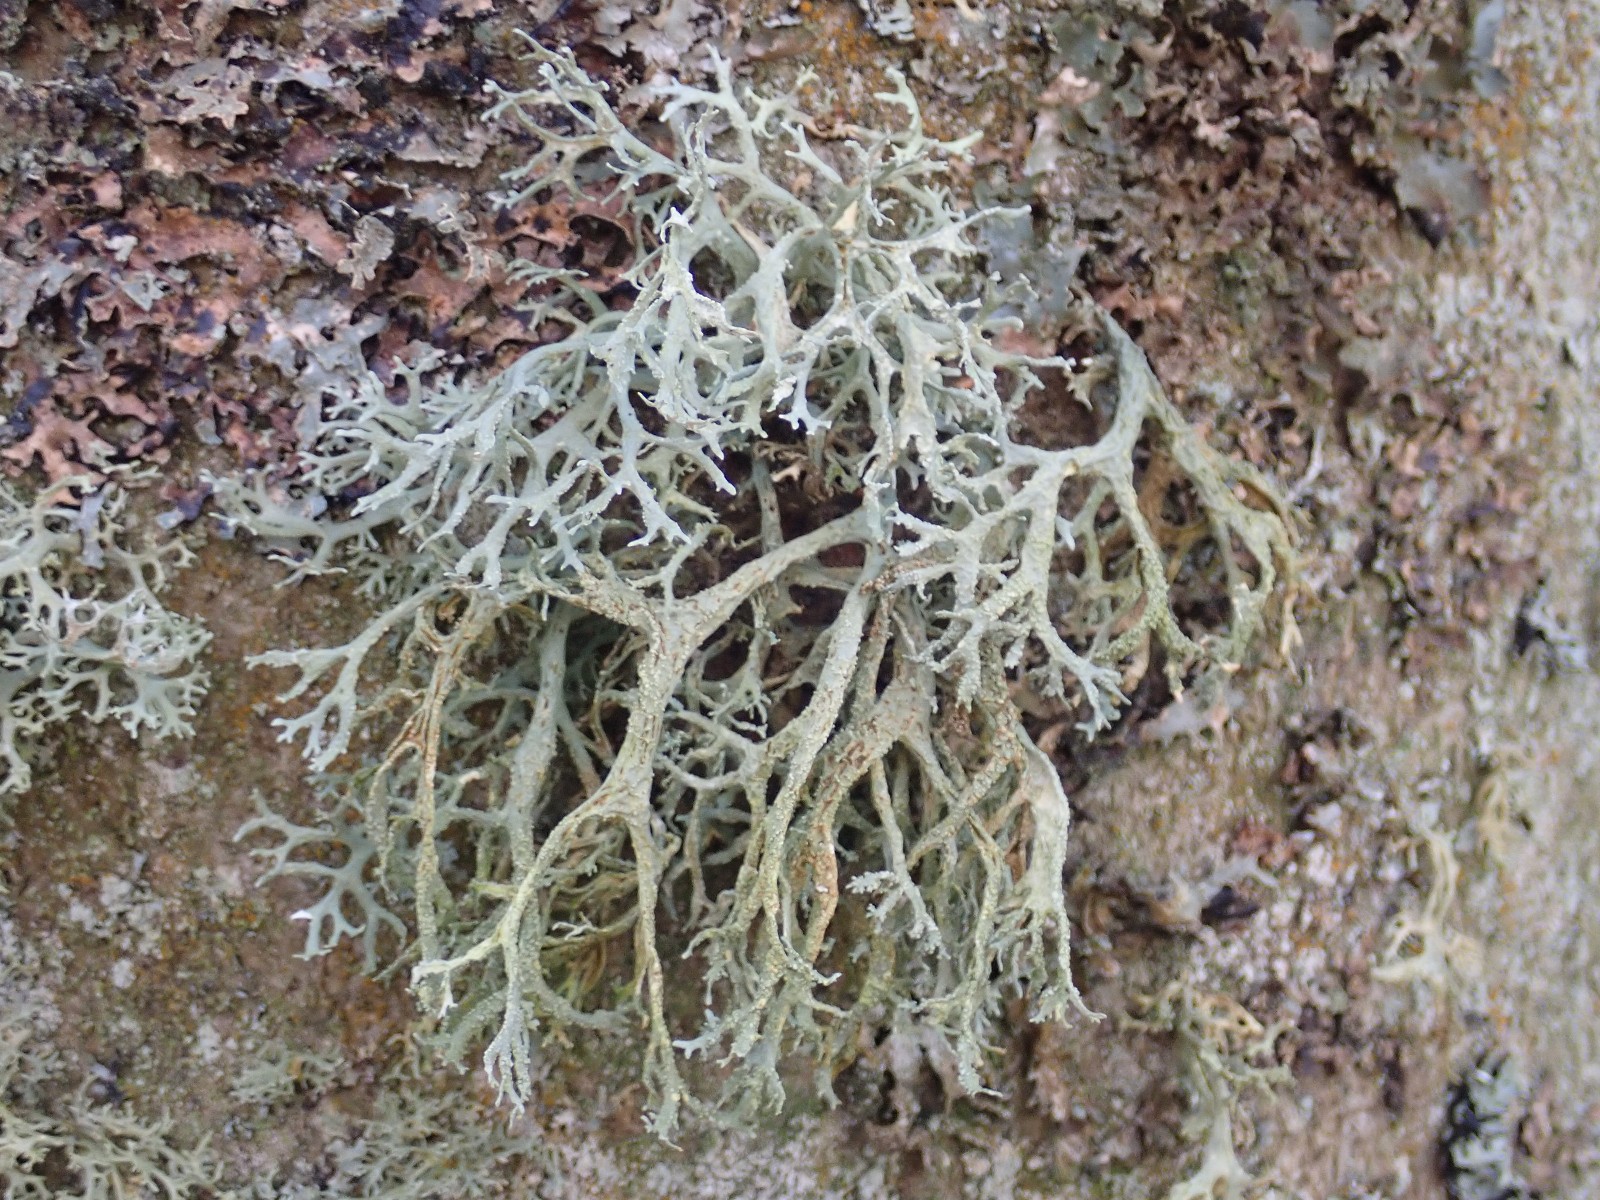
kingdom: Fungi
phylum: Ascomycota
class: Lecanoromycetes
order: Lecanorales
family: Parmeliaceae
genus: Evernia
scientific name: Evernia prunastri
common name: almindelig slåenlav
